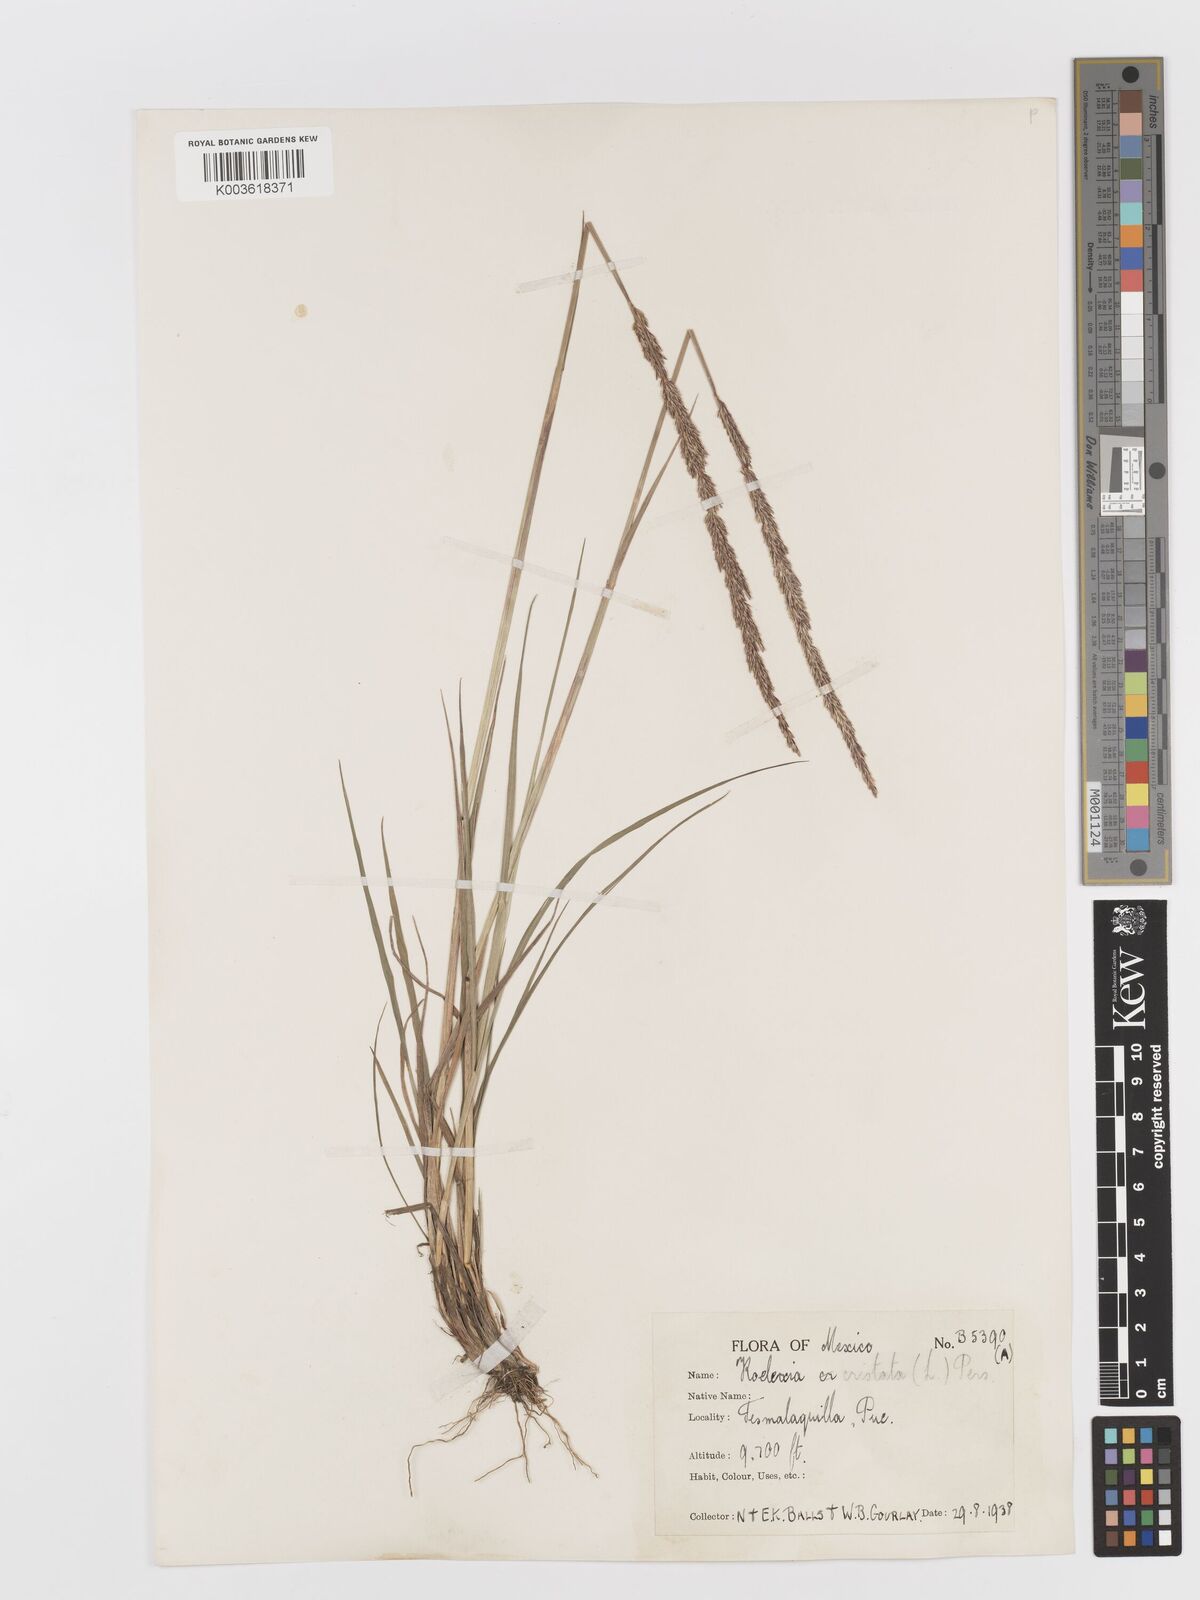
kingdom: Plantae
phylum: Tracheophyta
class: Liliopsida
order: Poales
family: Poaceae
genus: Koeleria
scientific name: Koeleria pyramidata
